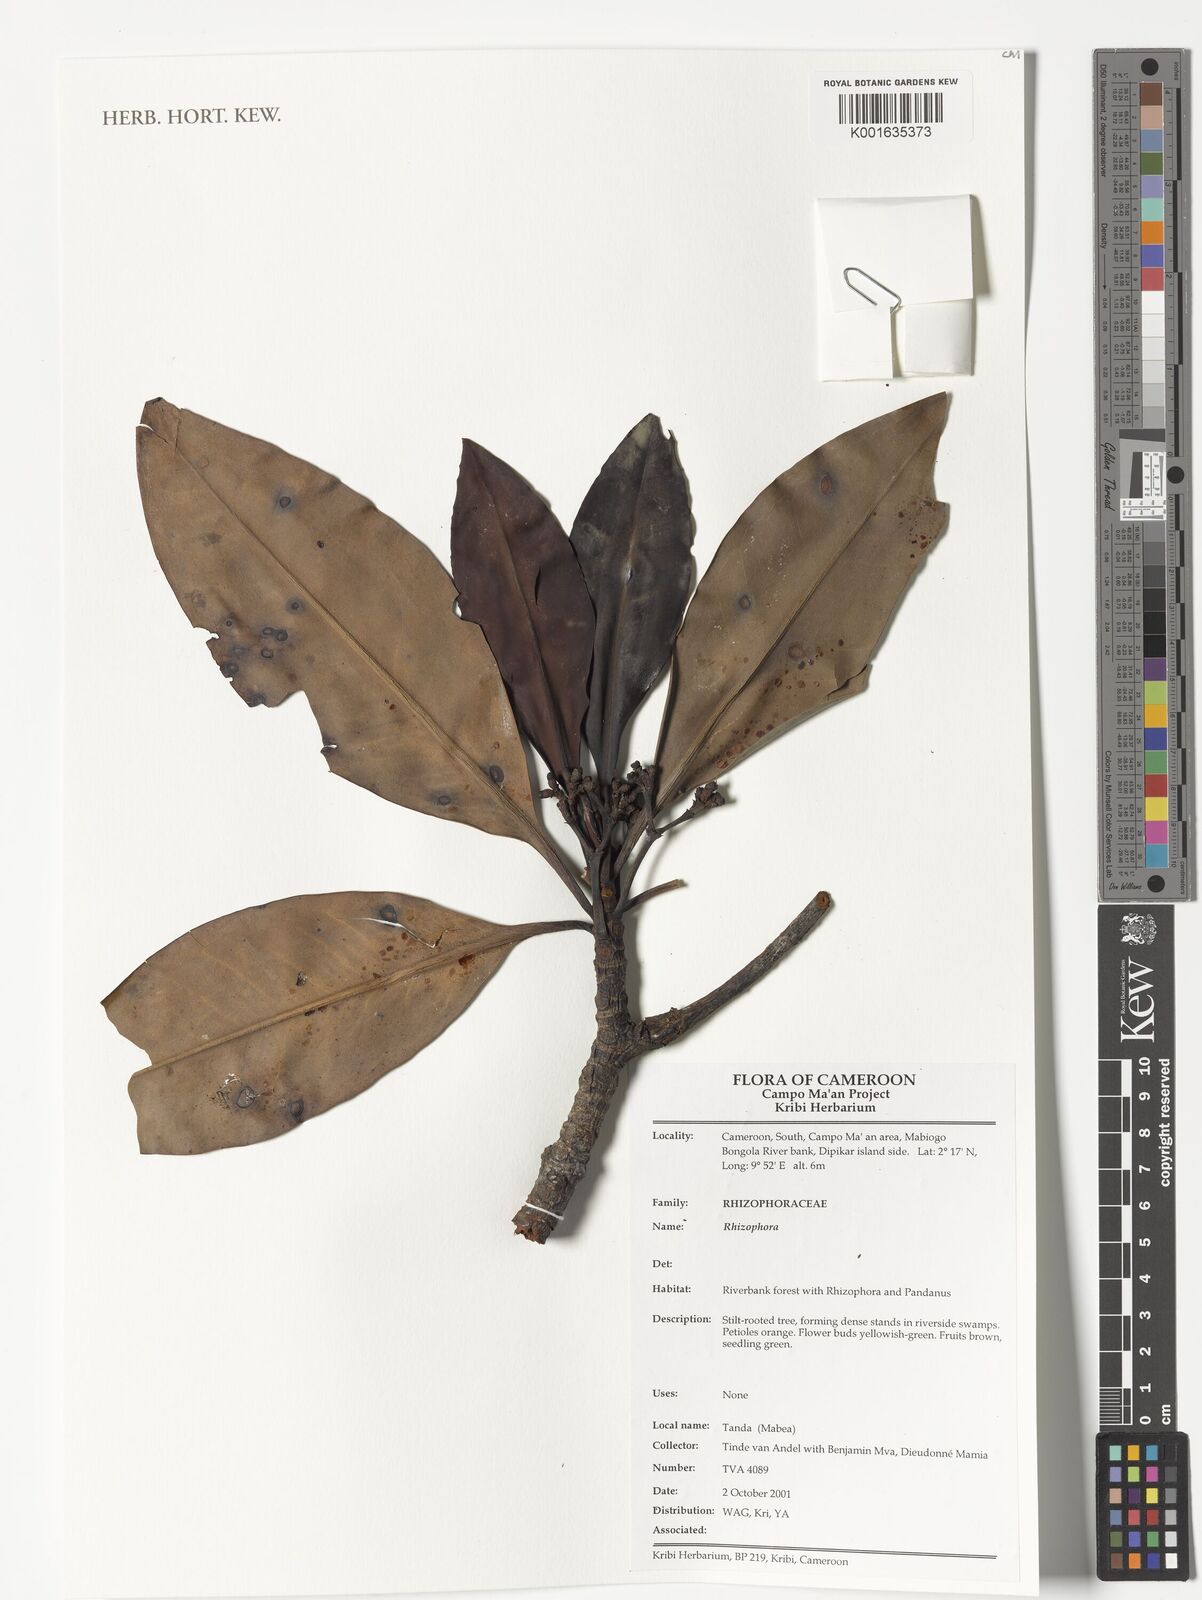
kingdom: Plantae
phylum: Tracheophyta
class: Magnoliopsida
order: Malpighiales
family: Rhizophoraceae
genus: Rhizophora
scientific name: Rhizophora
